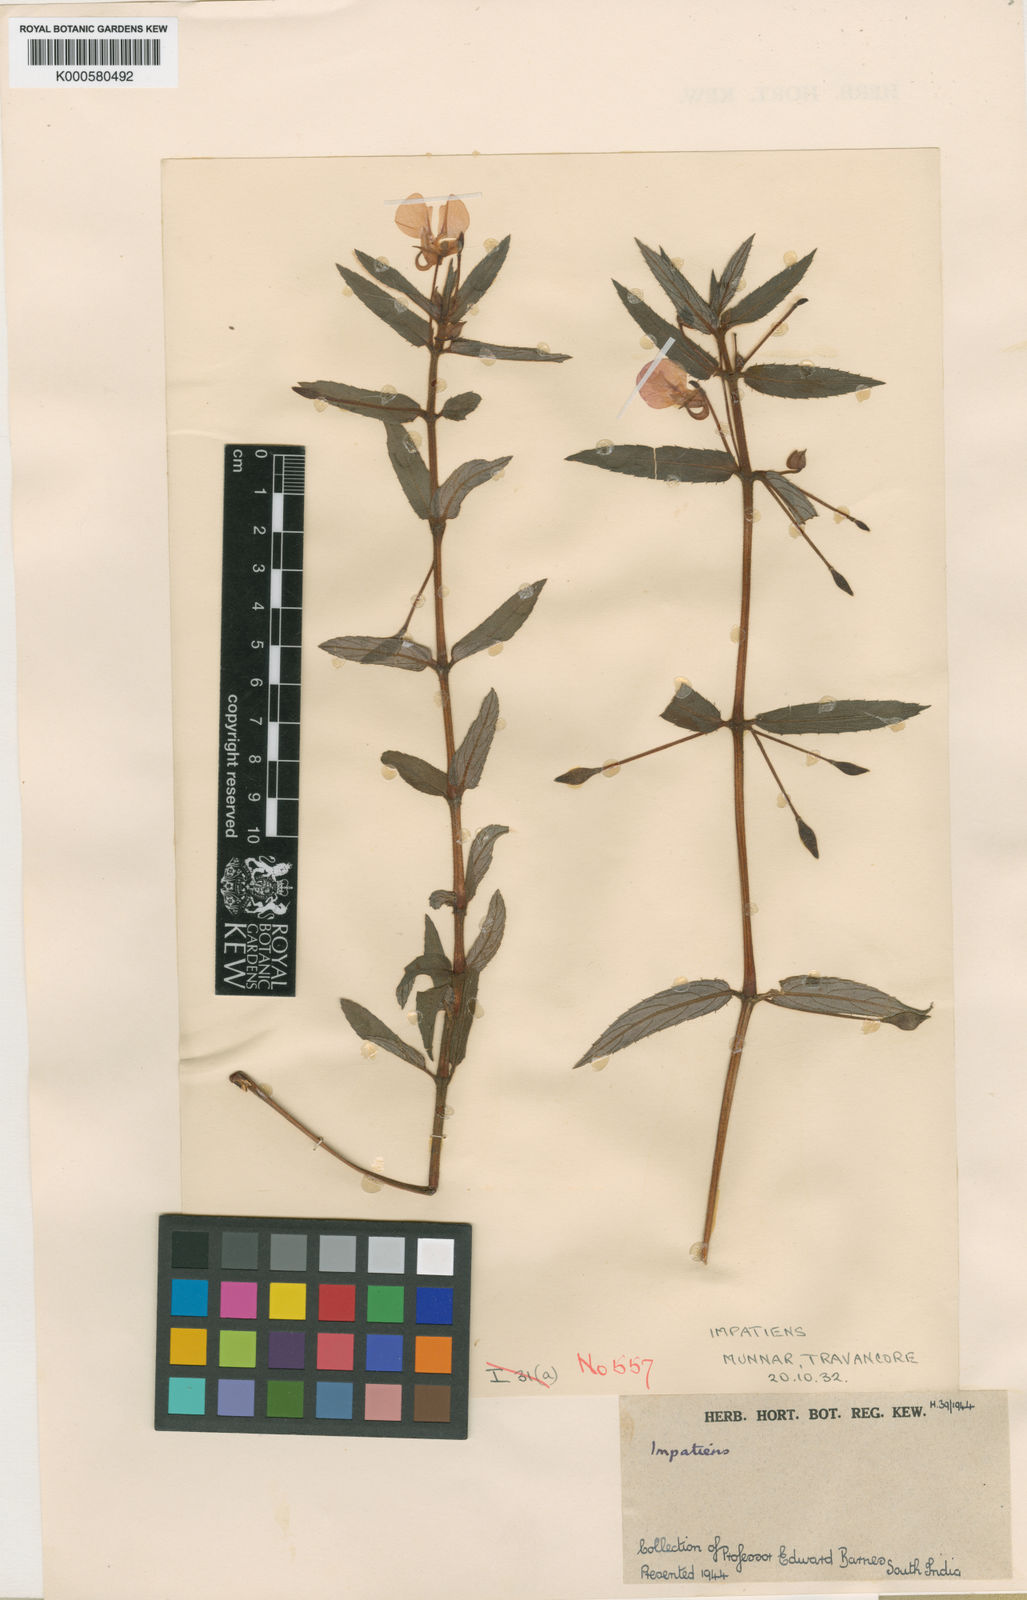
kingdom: Plantae
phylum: Tracheophyta
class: Magnoliopsida
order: Ericales
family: Balsaminaceae
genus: Impatiens
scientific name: Impatiens chinensis
